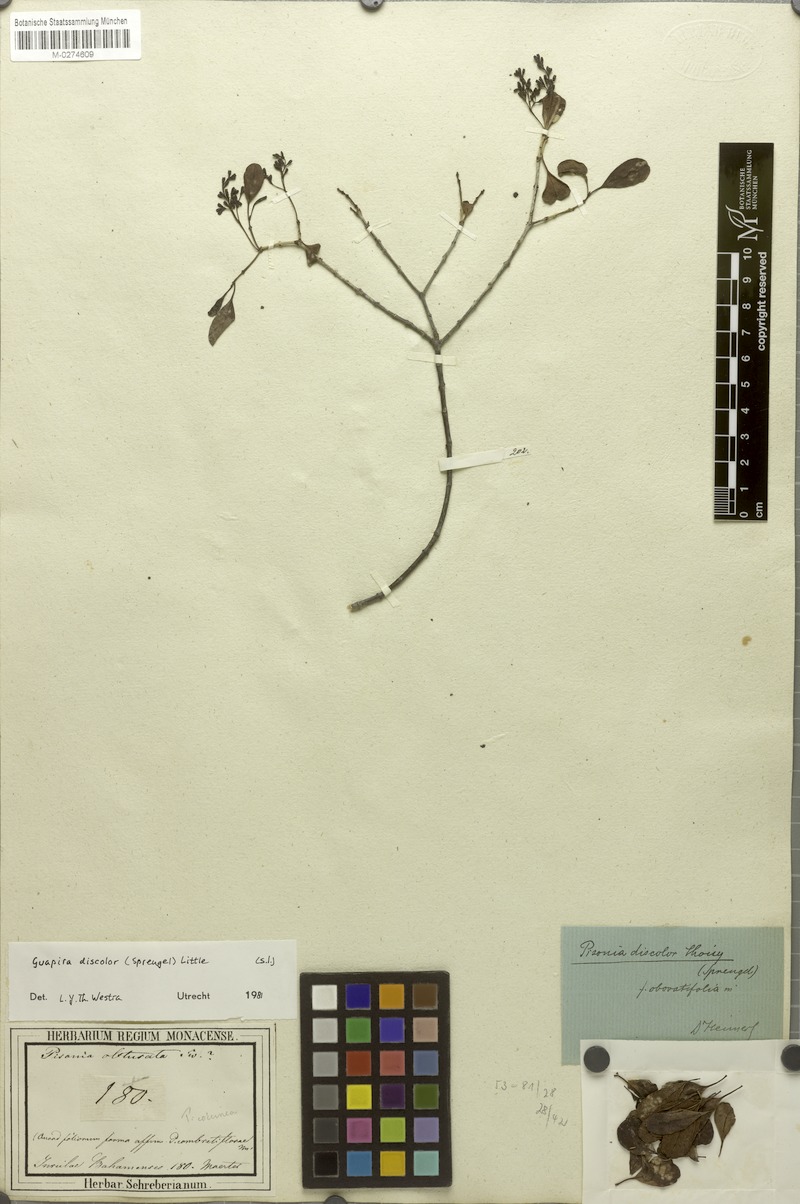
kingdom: Plantae
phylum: Tracheophyta
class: Magnoliopsida
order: Caryophyllales
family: Nyctaginaceae
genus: Guapira
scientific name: Guapira discolor
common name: Beeftree
